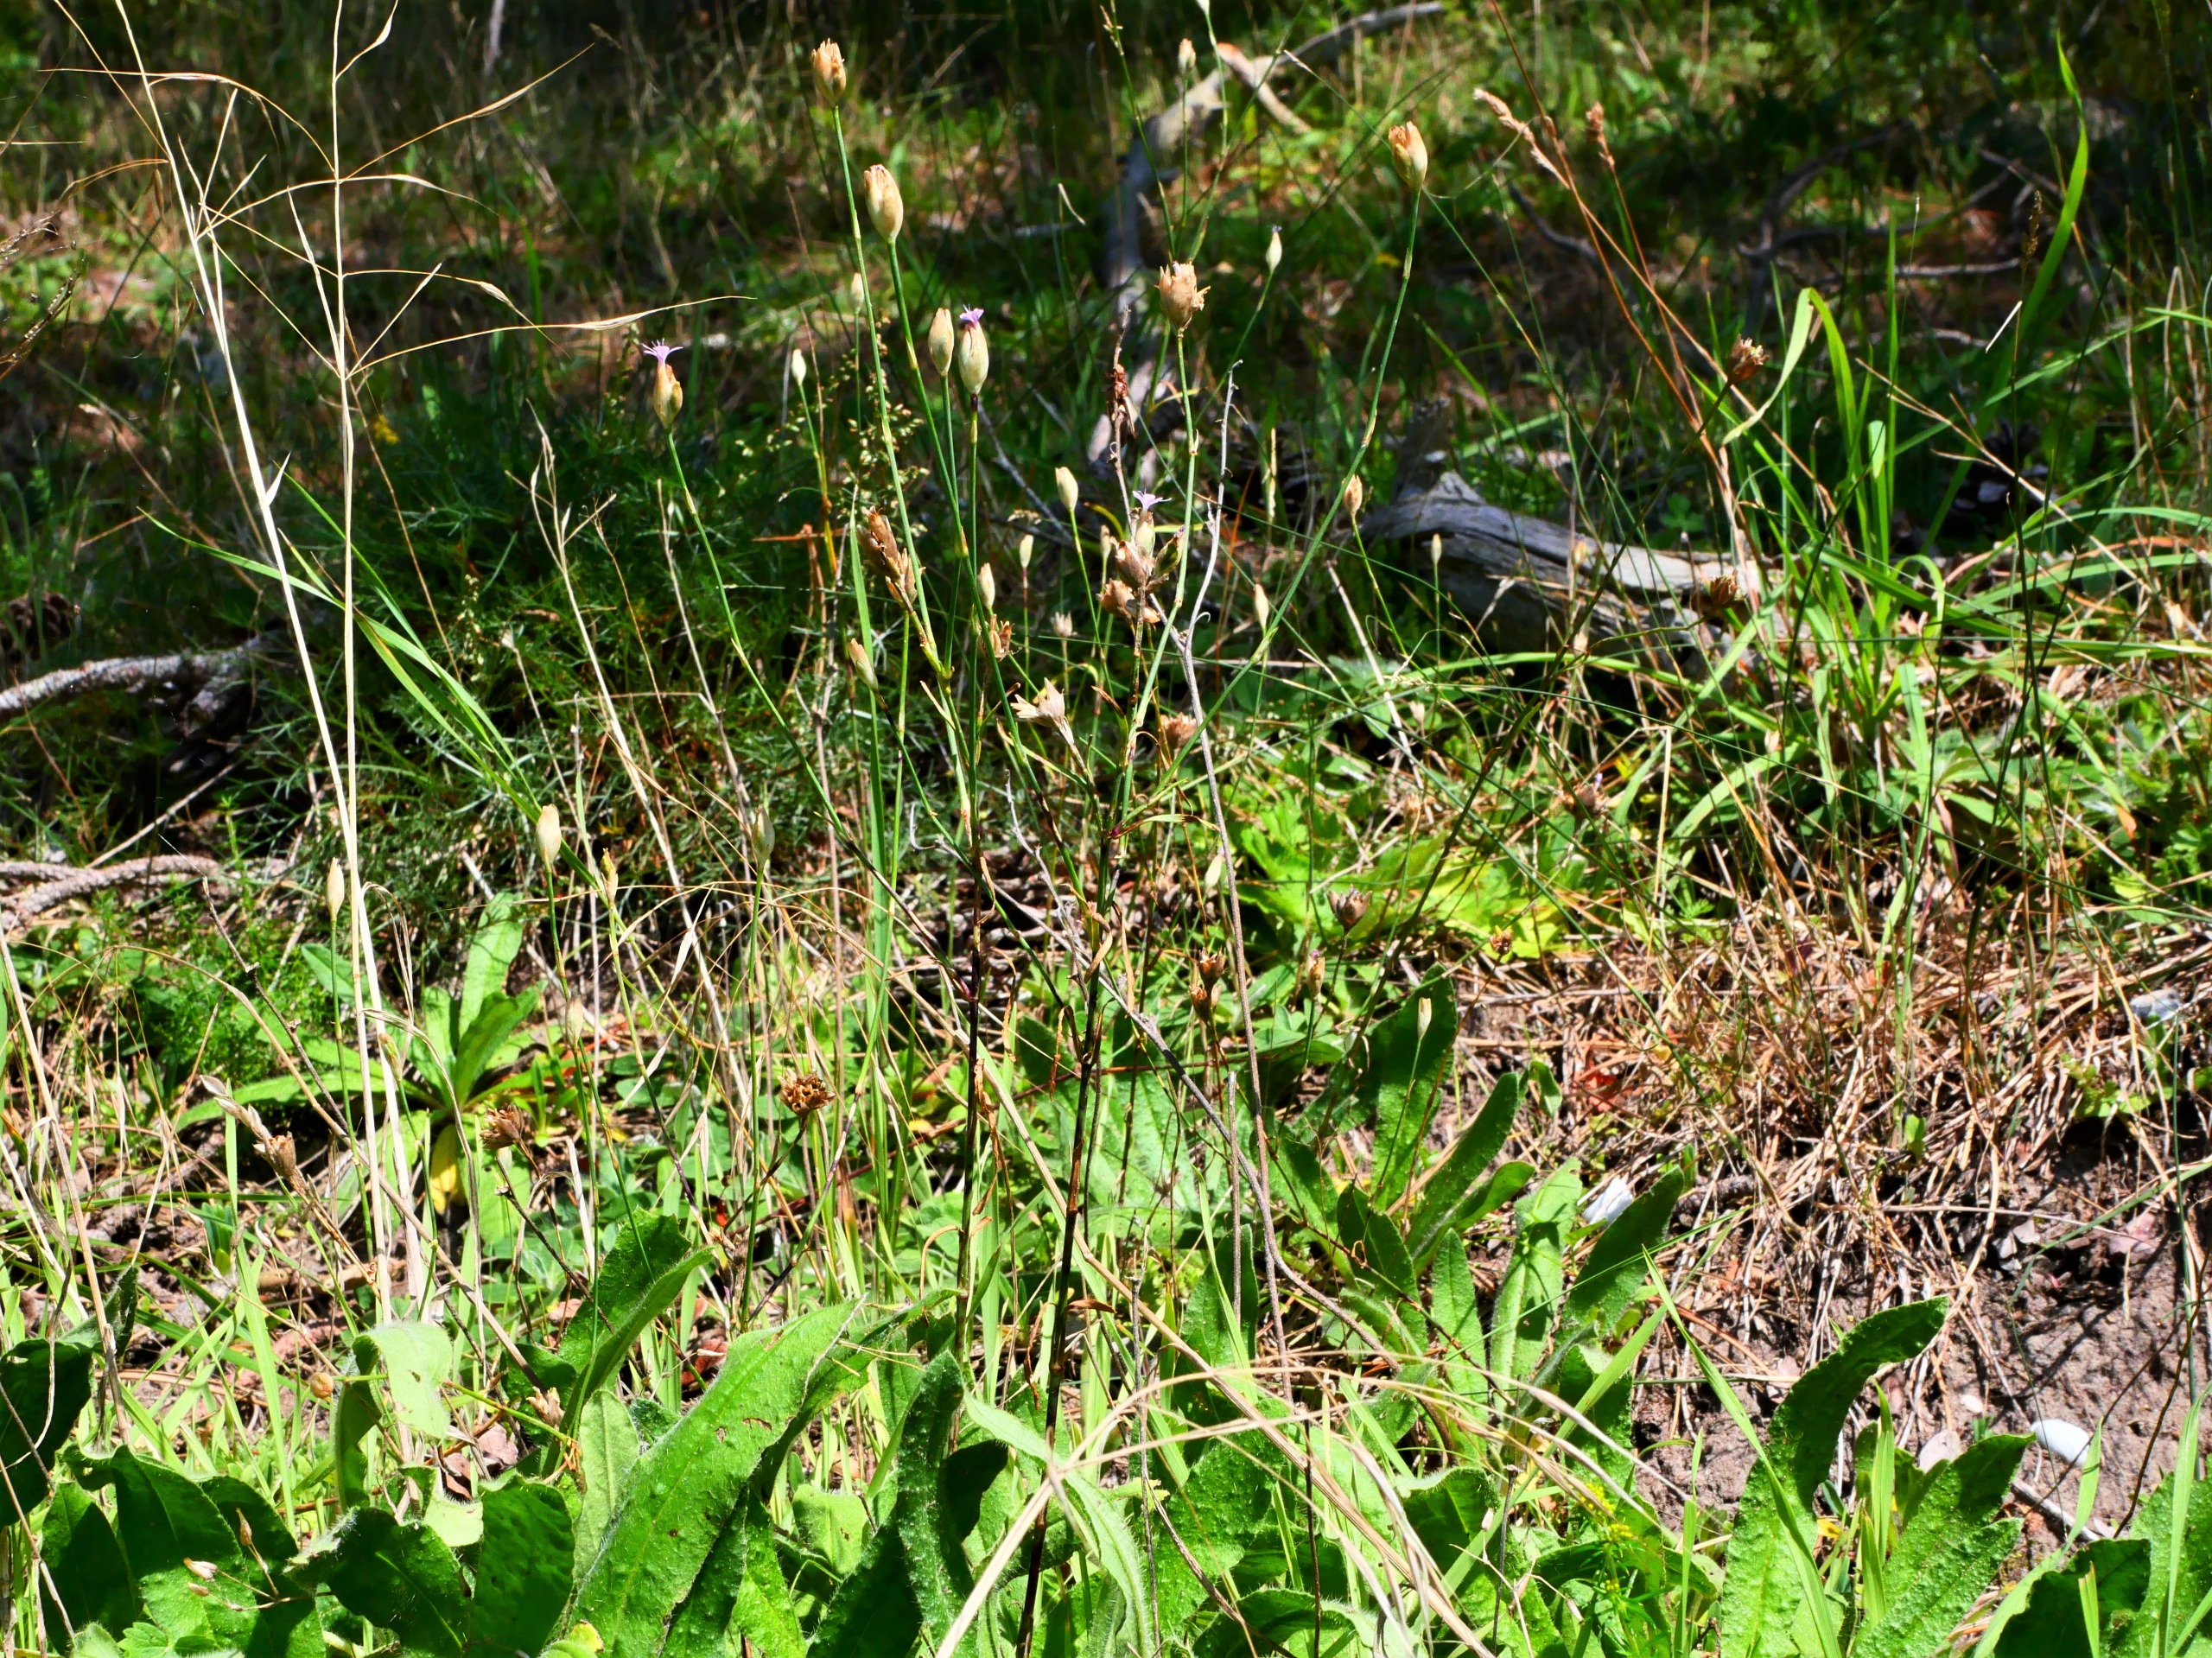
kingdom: Plantae
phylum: Tracheophyta
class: Magnoliopsida
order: Caryophyllales
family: Caryophyllaceae
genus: Petrorhagia
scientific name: Petrorhagia prolifera
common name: Knopnellike
